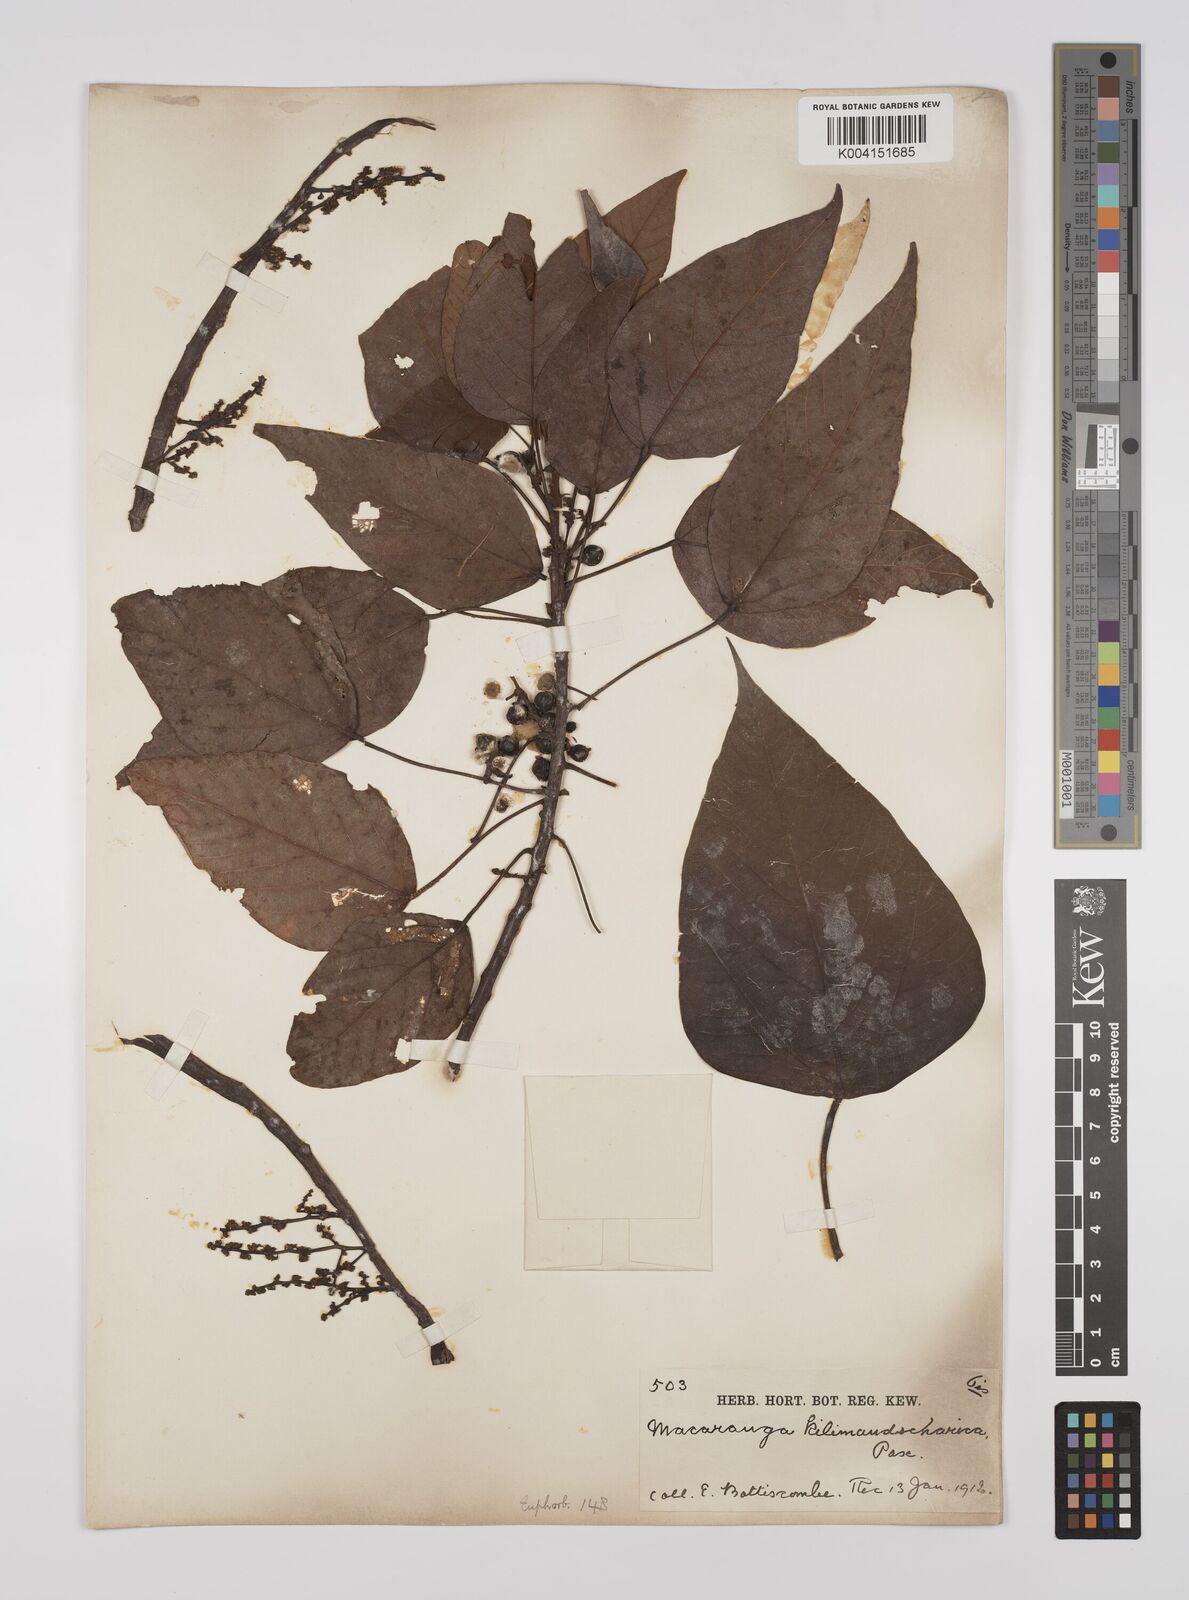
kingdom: Plantae
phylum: Tracheophyta
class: Magnoliopsida
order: Malpighiales
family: Euphorbiaceae
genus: Macaranga
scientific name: Macaranga kilimandscharica
